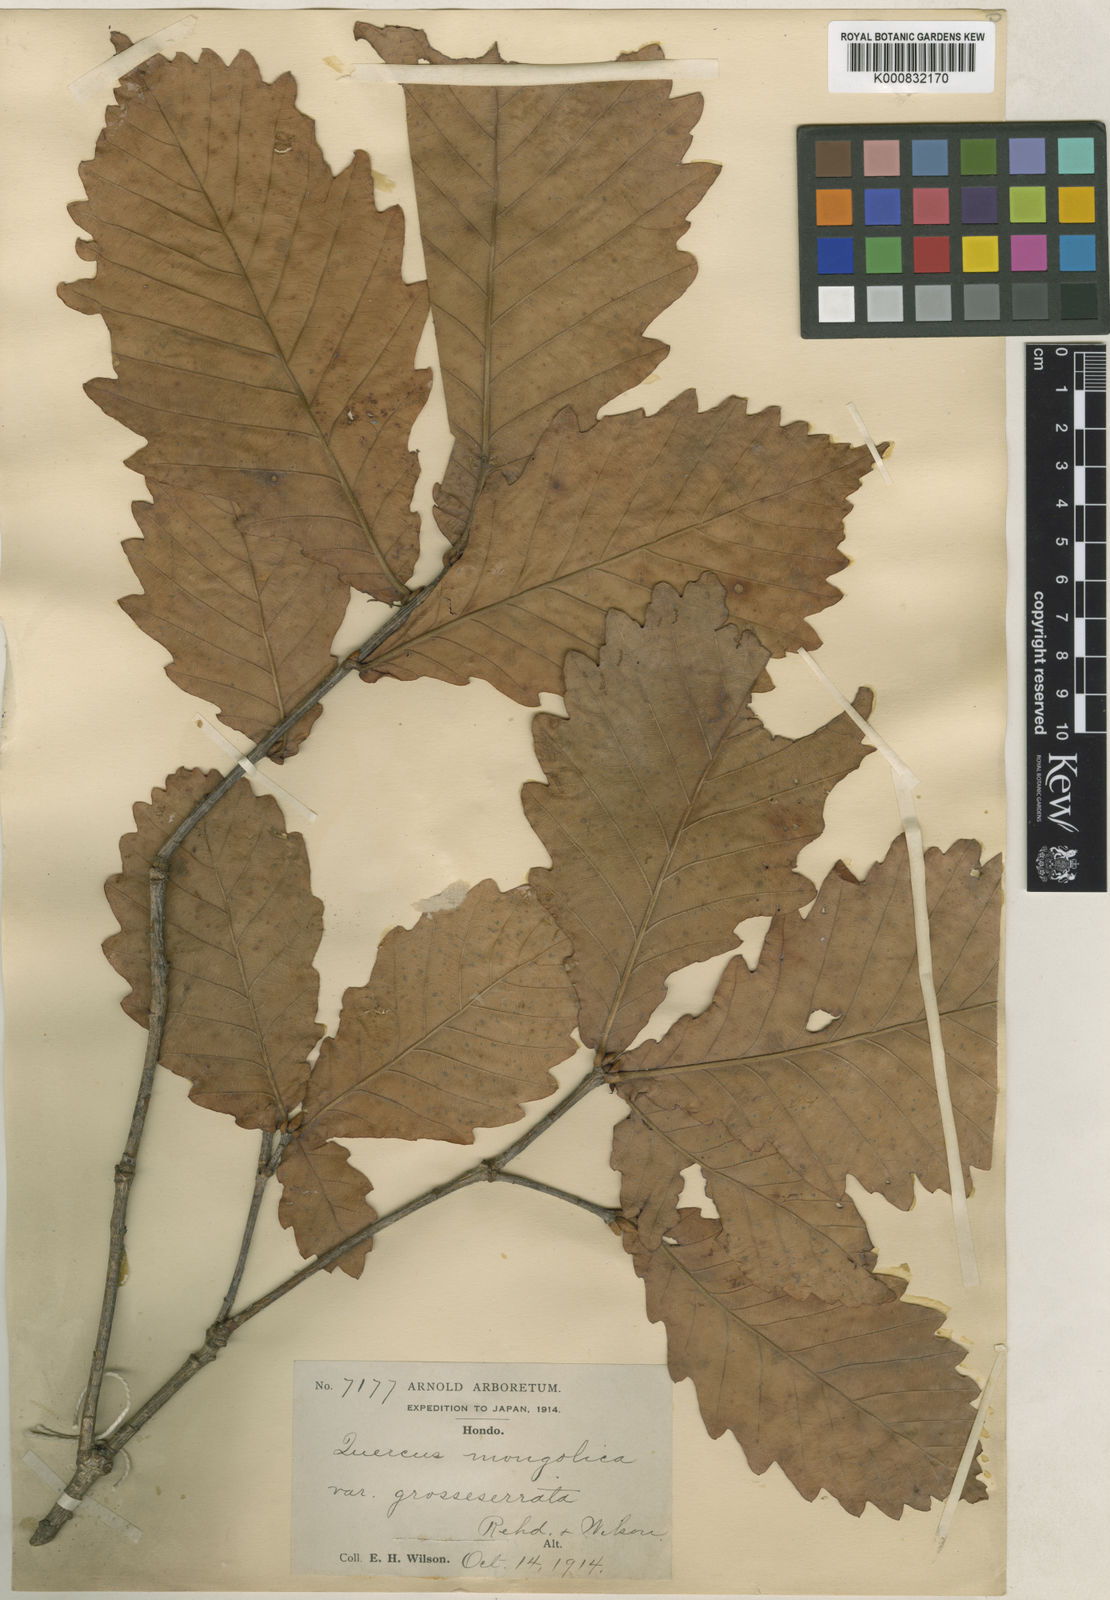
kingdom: Plantae
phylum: Tracheophyta
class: Magnoliopsida
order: Fagales
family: Fagaceae
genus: Quercus
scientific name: Quercus mongolica
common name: Mongolian oak
